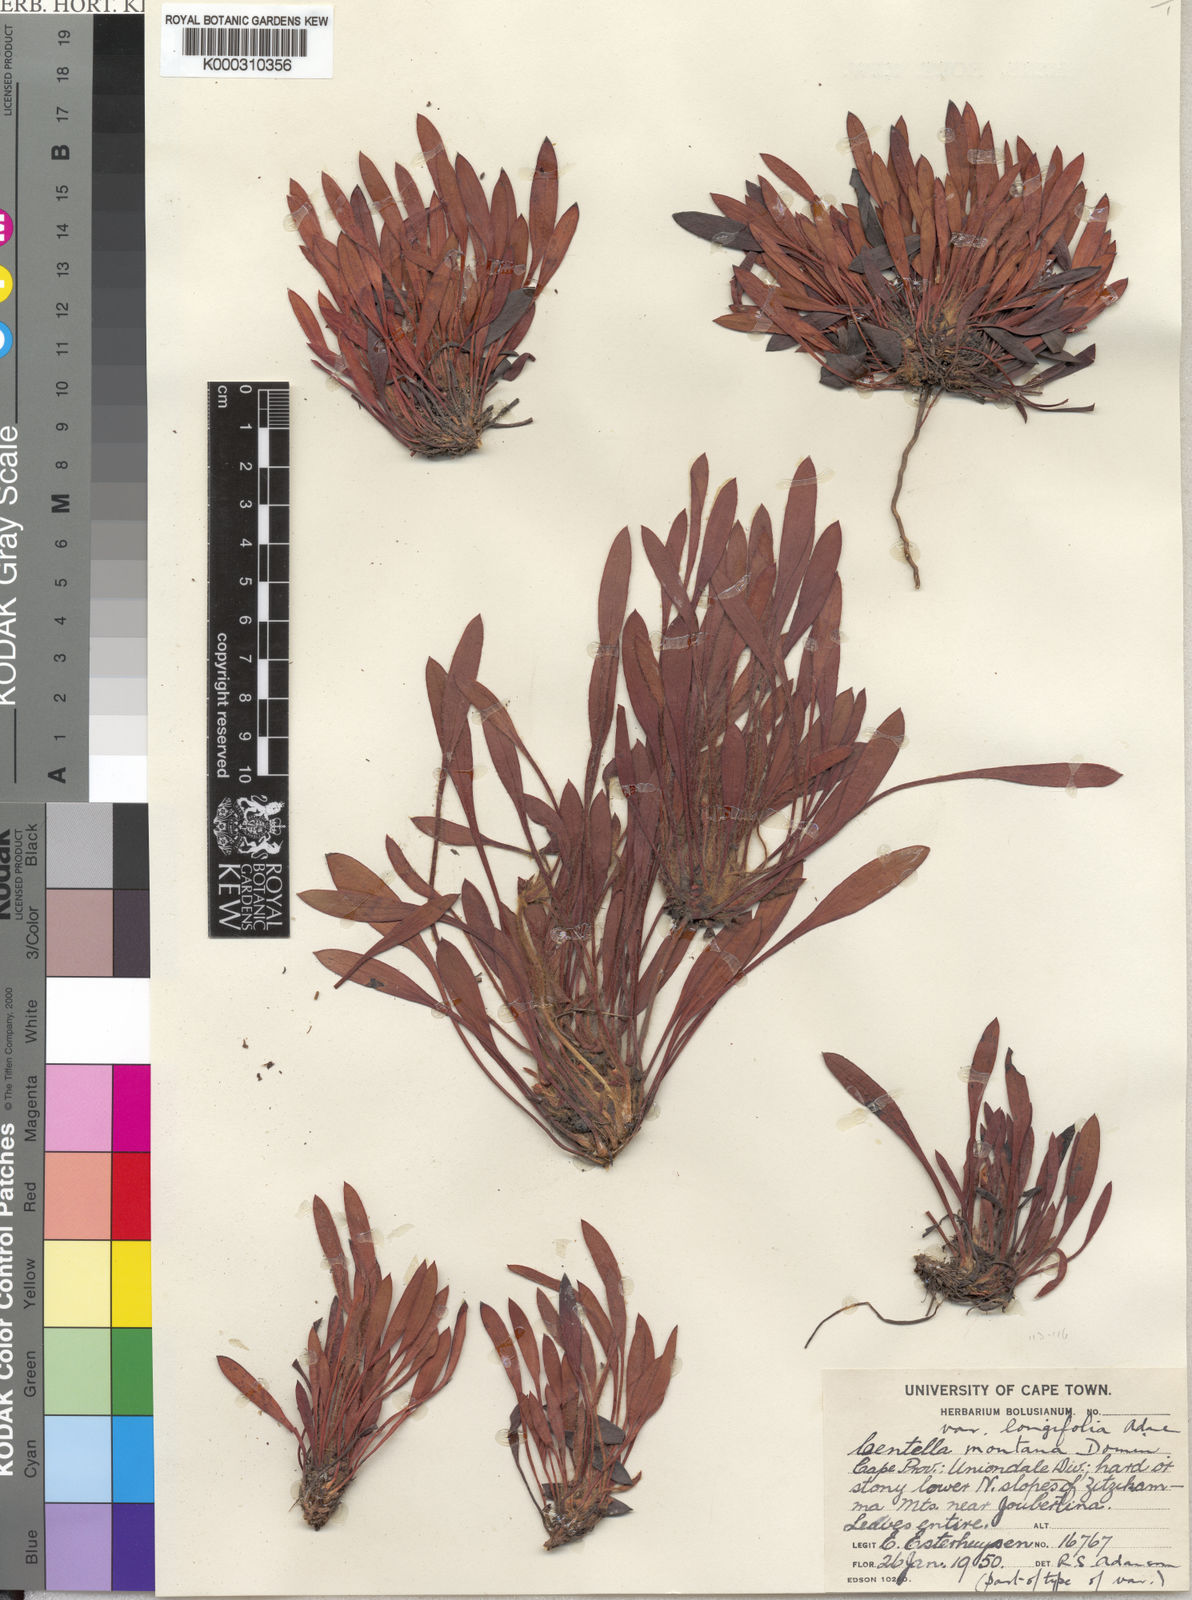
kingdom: Plantae
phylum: Tracheophyta
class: Magnoliopsida
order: Apiales
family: Apiaceae
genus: Centella
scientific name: Centella montana
